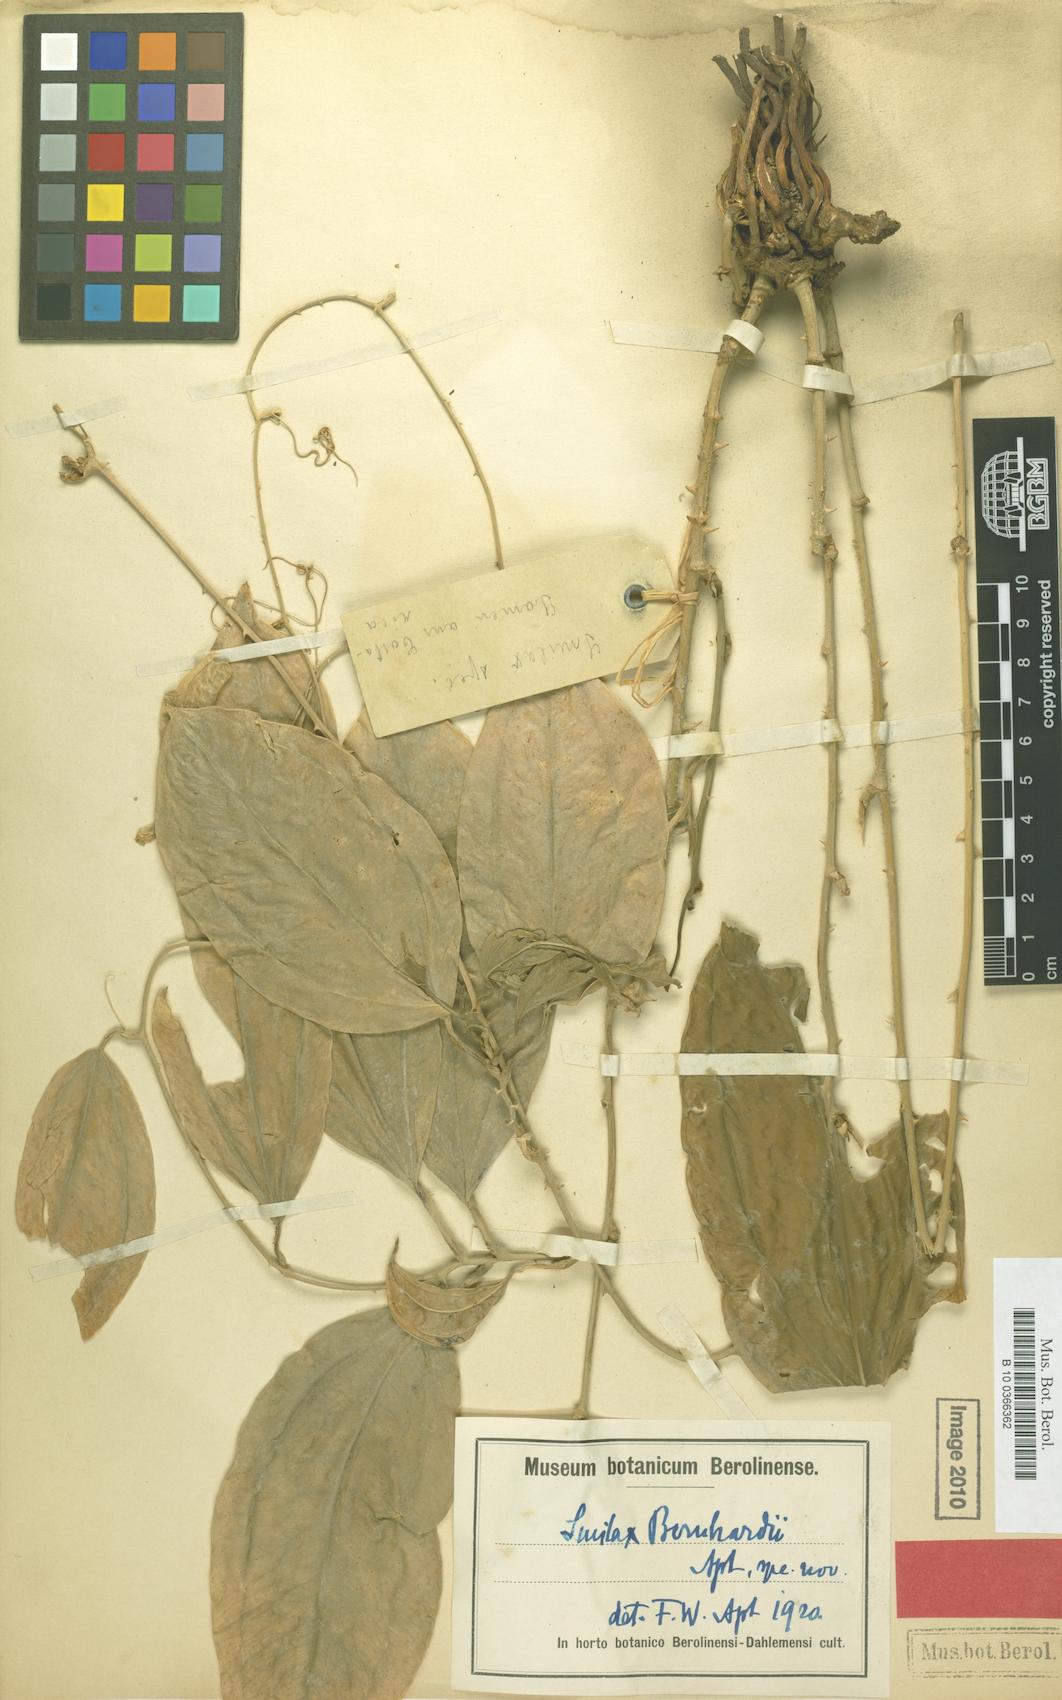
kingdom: Plantae
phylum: Tracheophyta
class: Liliopsida
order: Liliales
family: Smilacaceae
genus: Smilax
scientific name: Smilax officinalis
